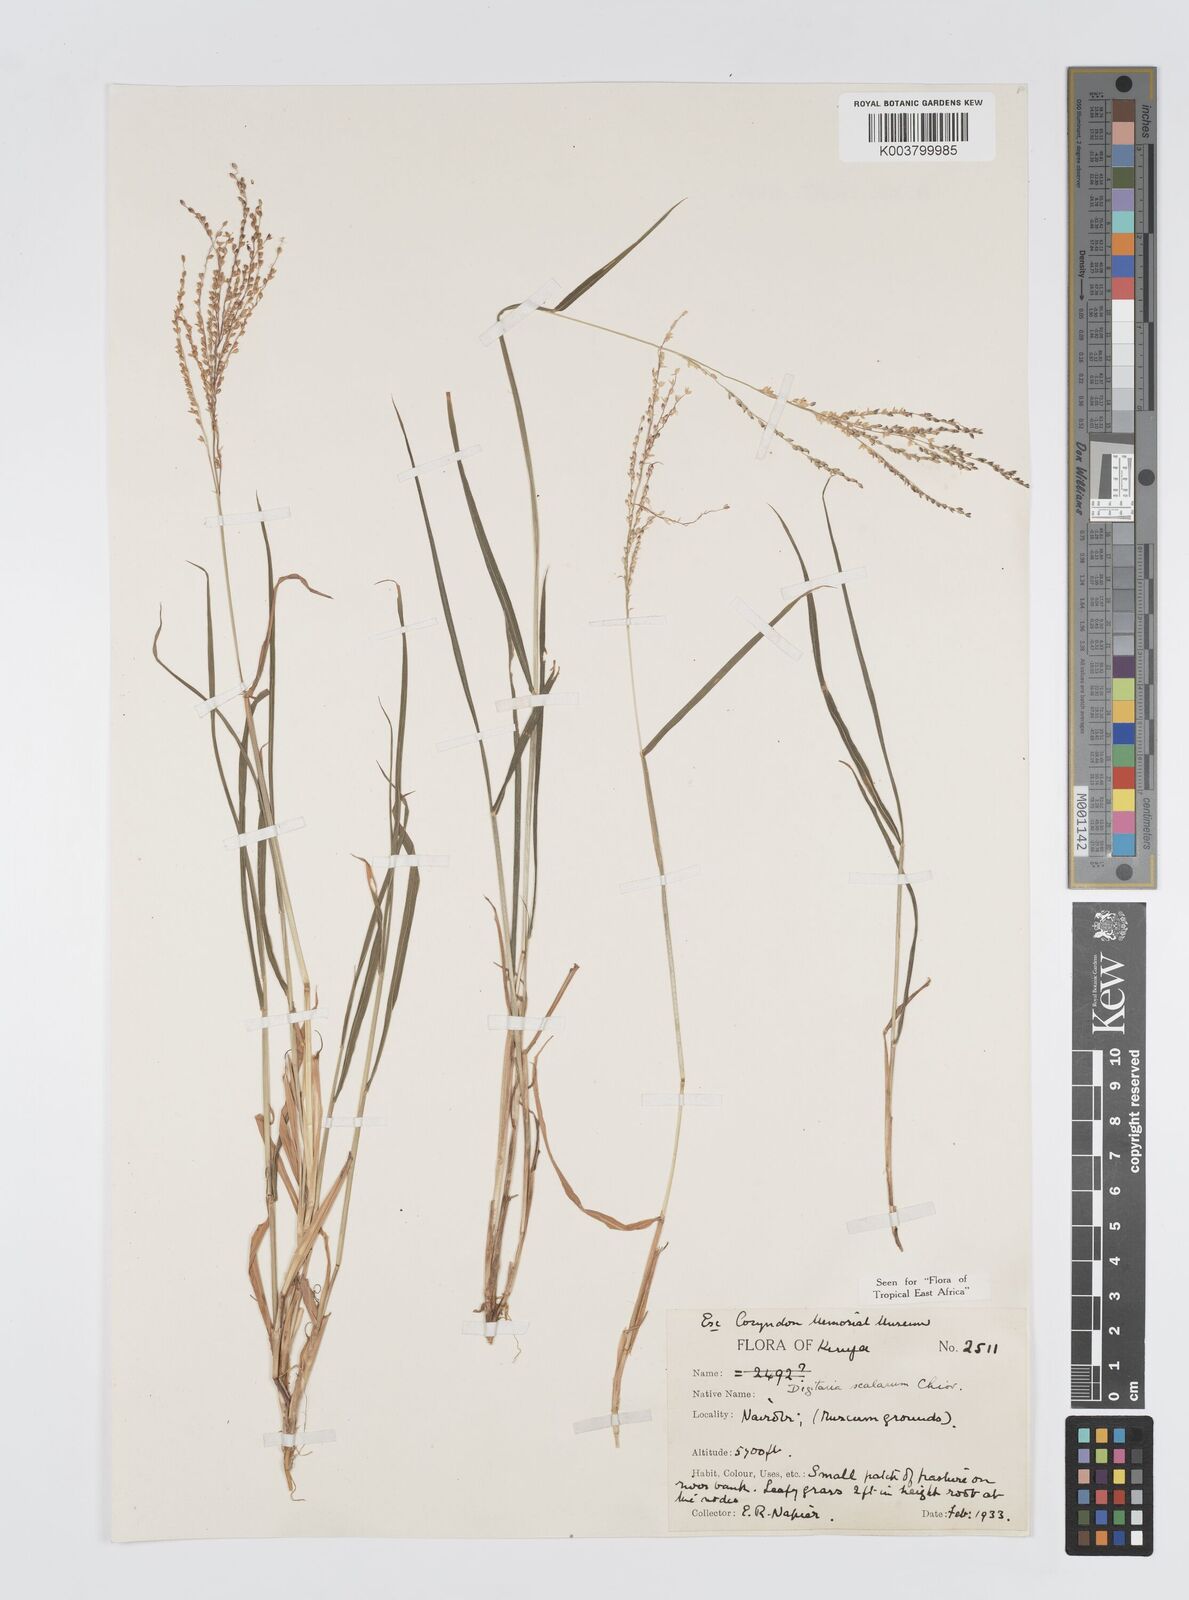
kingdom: Plantae
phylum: Tracheophyta
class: Liliopsida
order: Poales
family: Poaceae
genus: Digitaria
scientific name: Digitaria abyssinica
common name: African couchgrass
